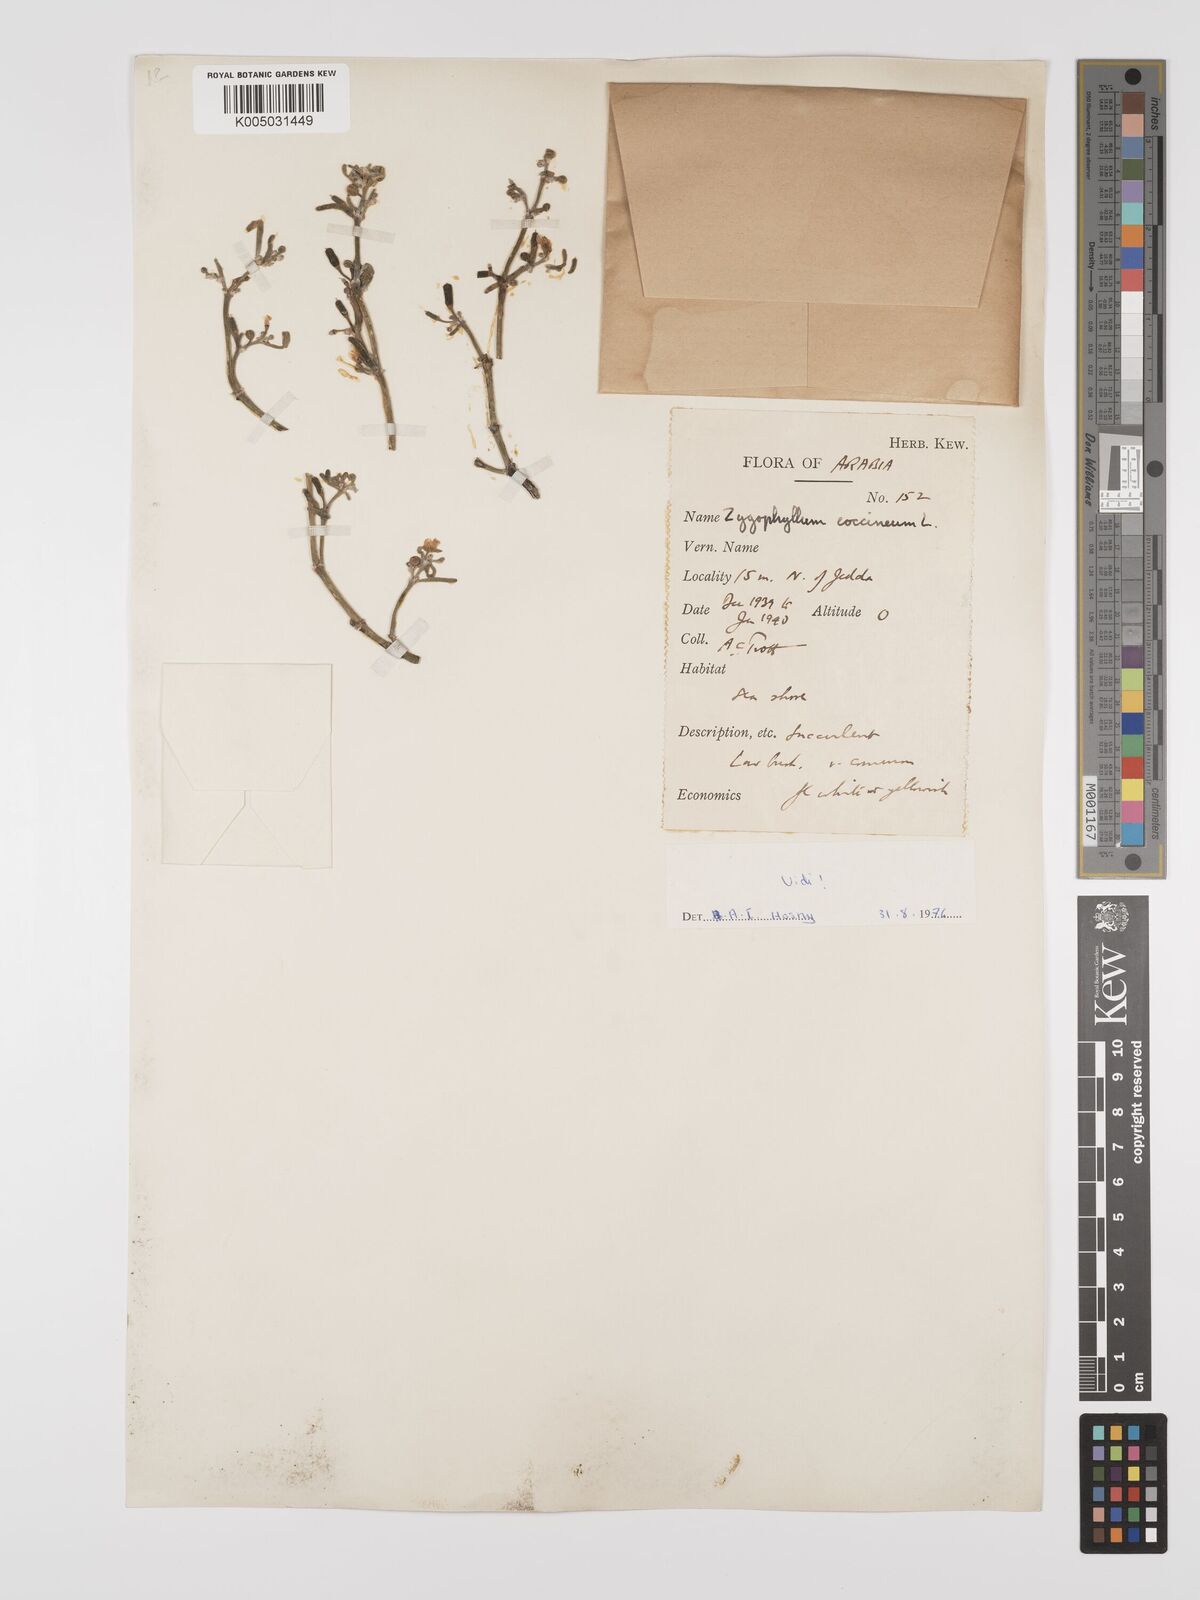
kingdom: Plantae
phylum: Tracheophyta
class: Magnoliopsida
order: Zygophyllales
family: Zygophyllaceae
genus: Zygophyllum
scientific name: Zygophyllum
